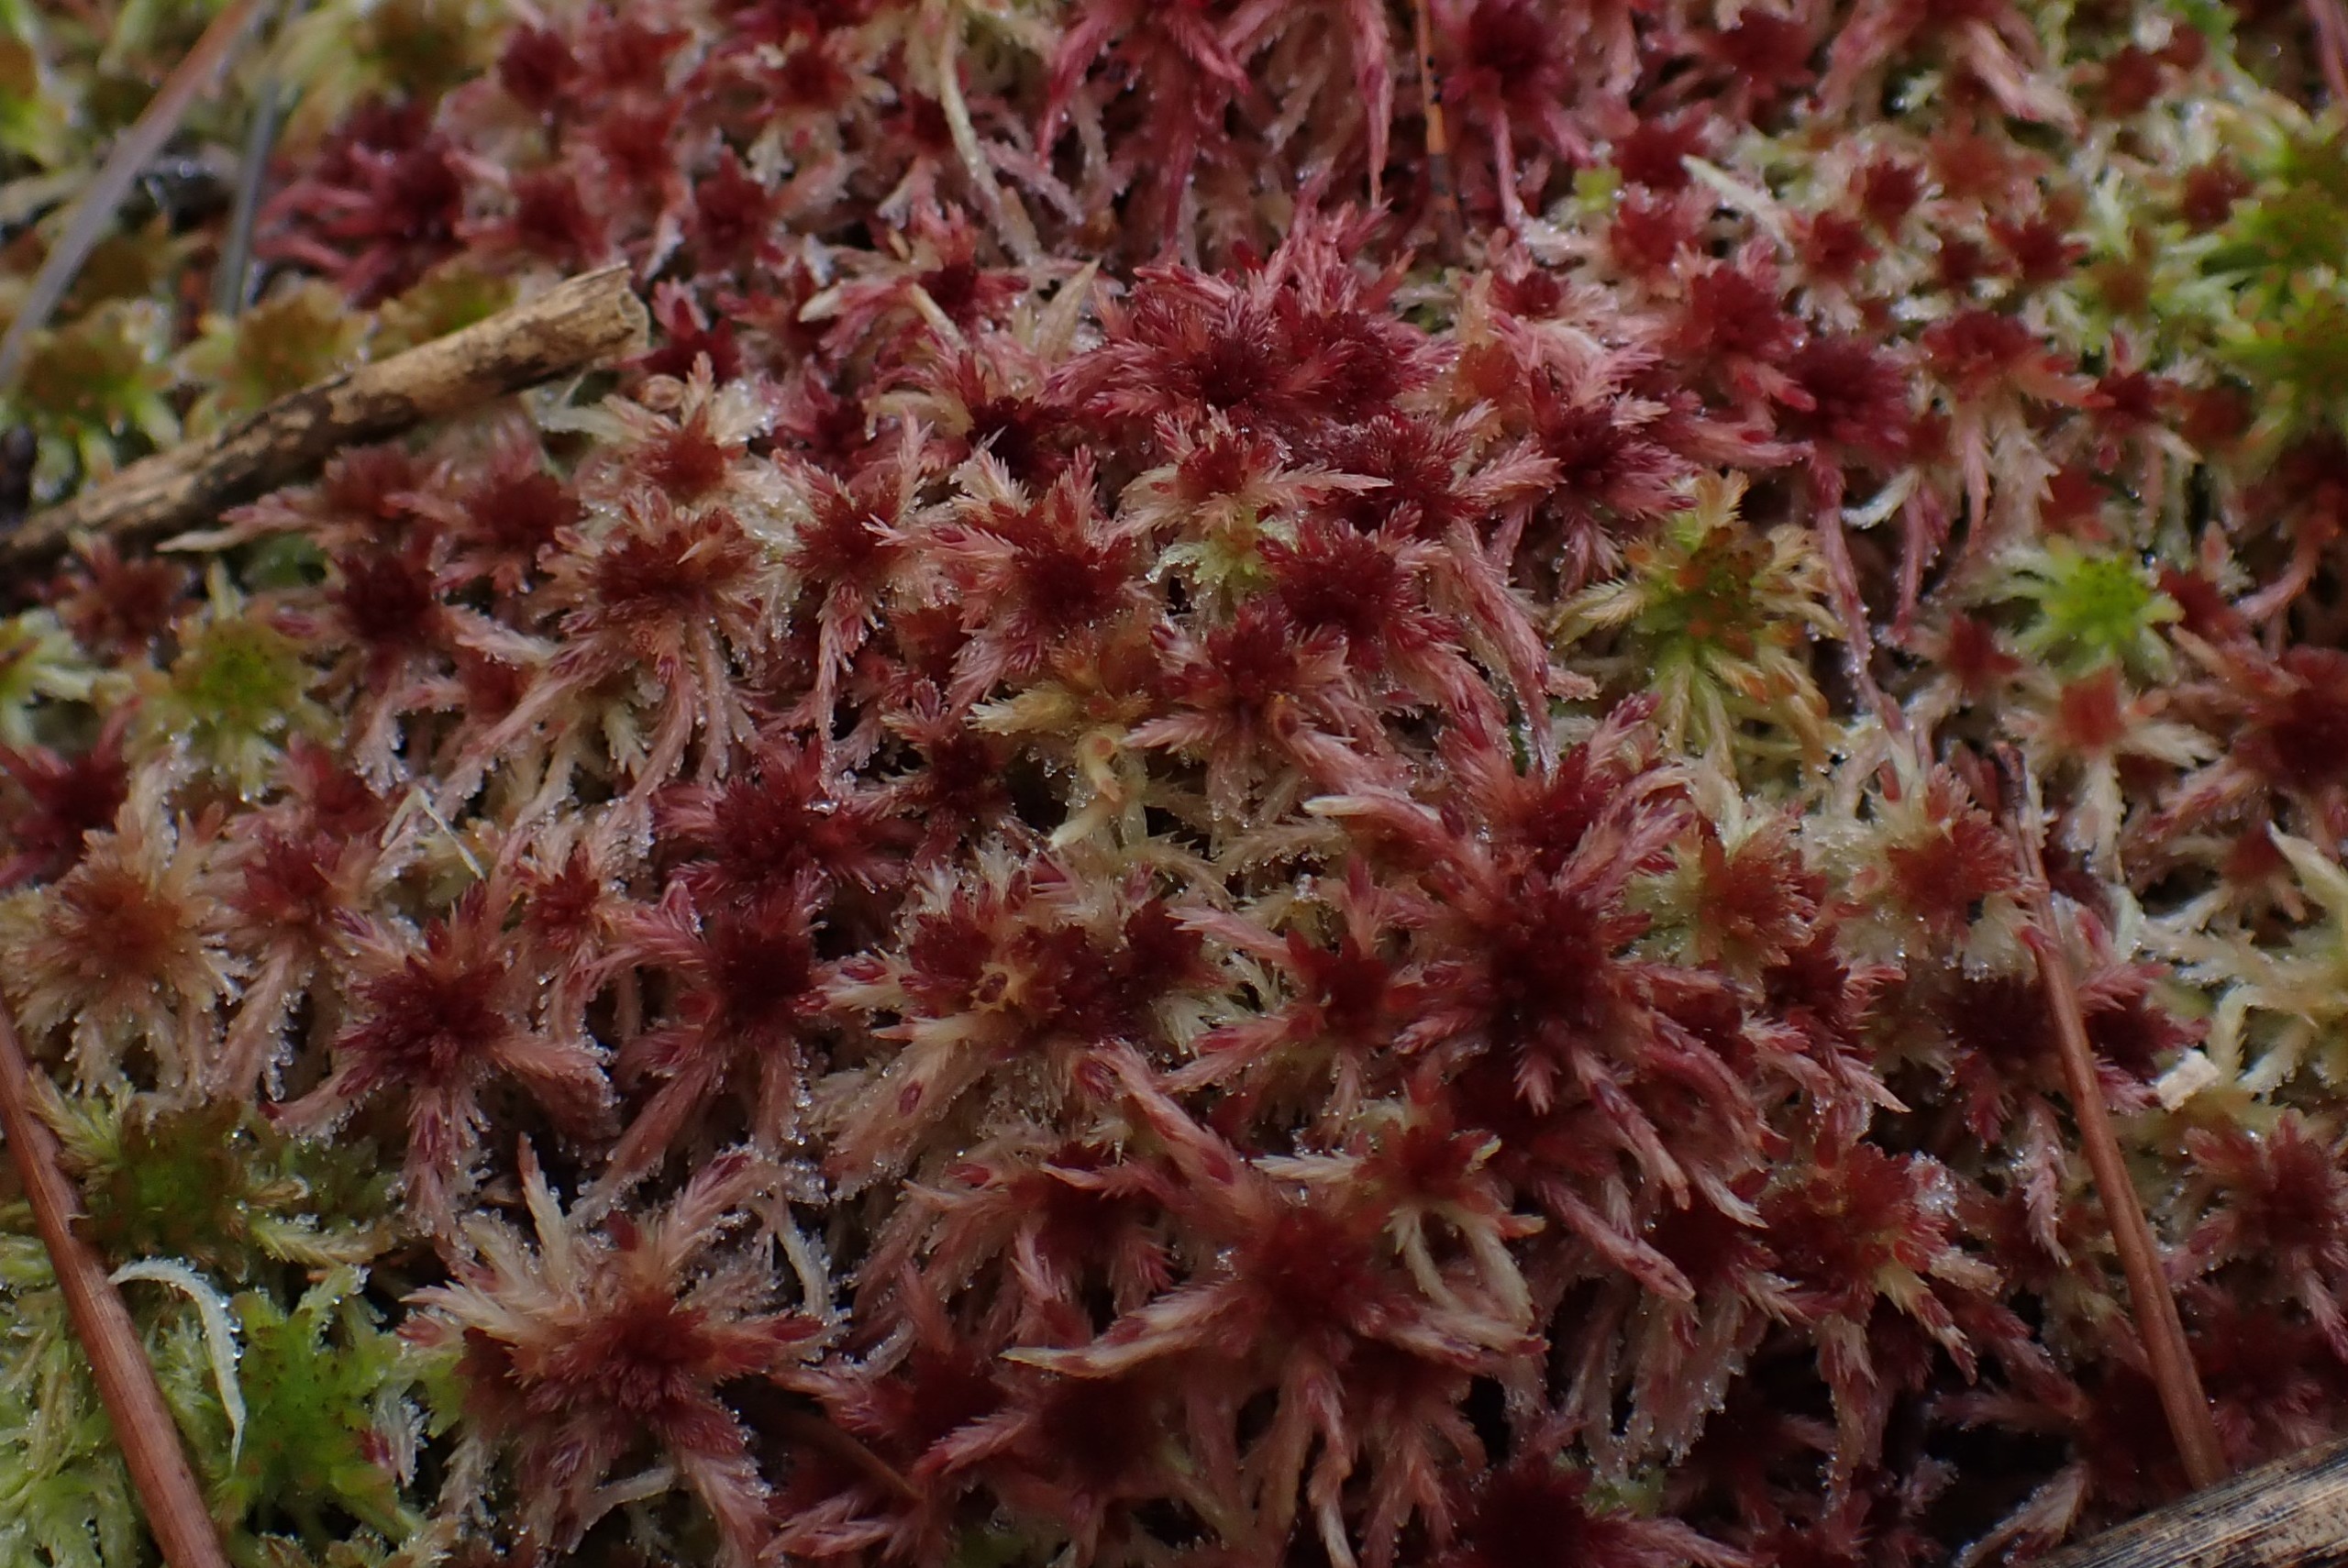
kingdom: Plantae
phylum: Bryophyta
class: Sphagnopsida
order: Sphagnales
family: Sphagnaceae
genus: Sphagnum
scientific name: Sphagnum
